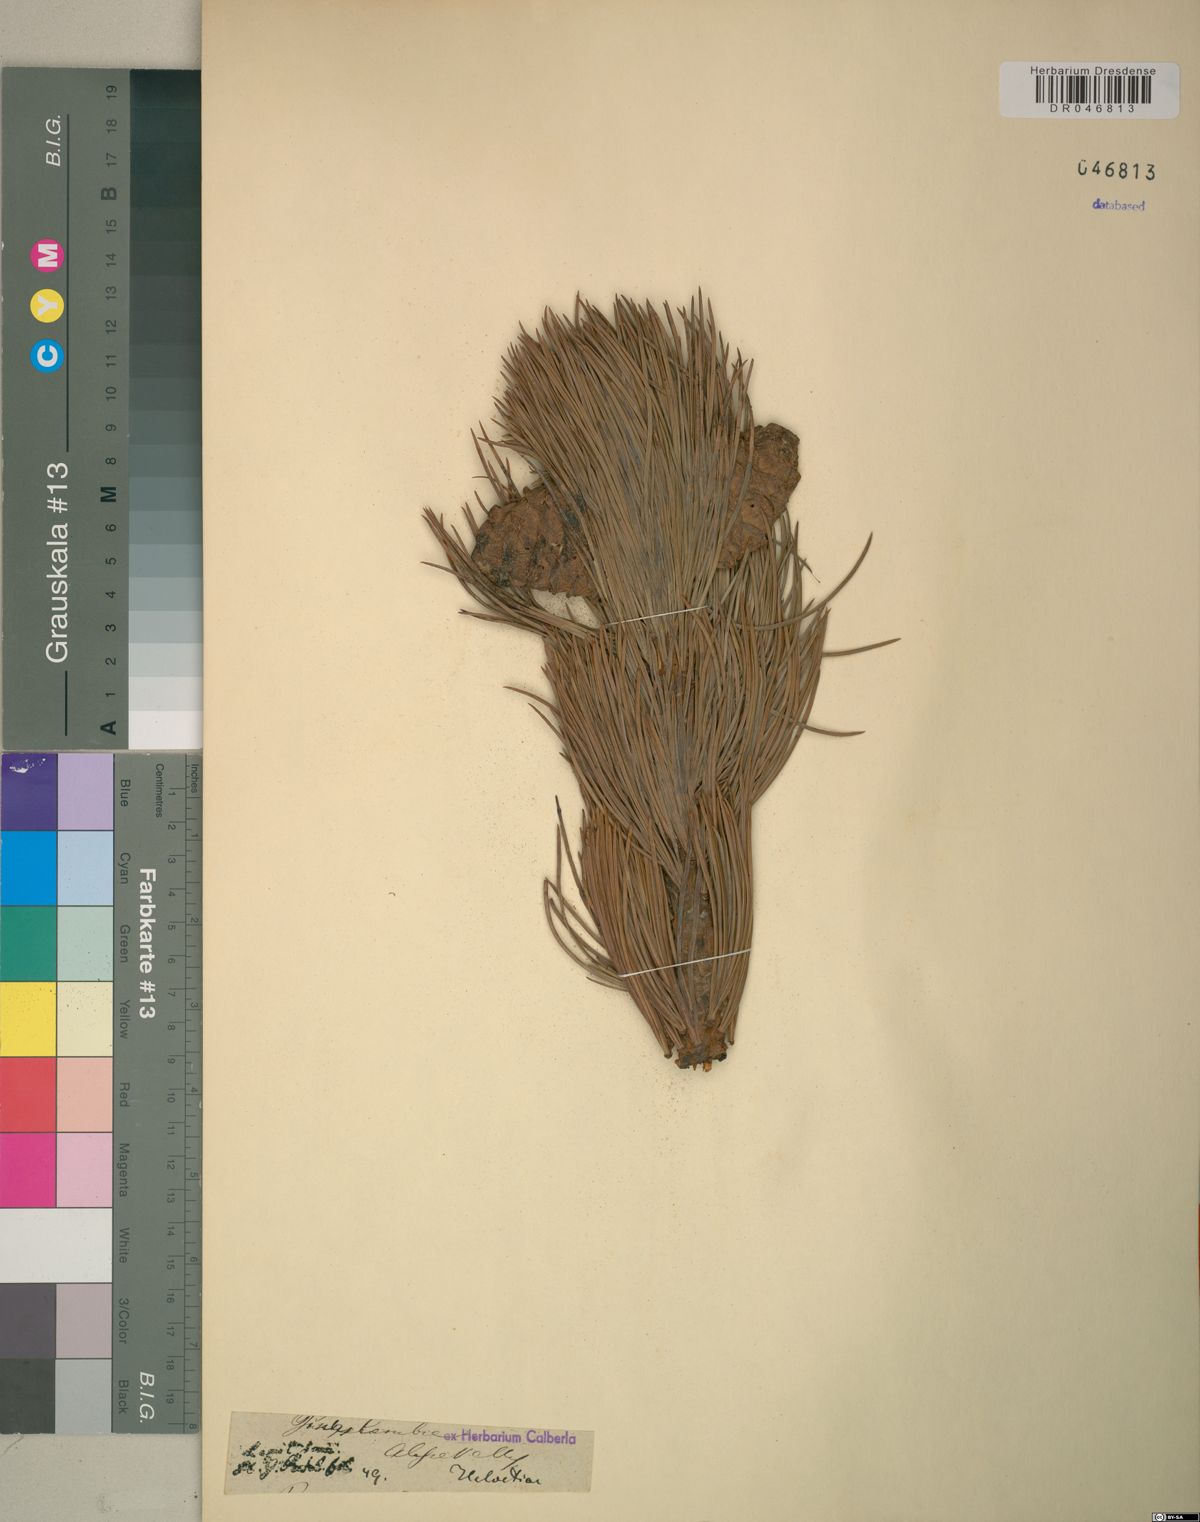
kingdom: Plantae
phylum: Tracheophyta
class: Pinopsida
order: Pinales
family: Pinaceae
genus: Pinus
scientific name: Pinus cembra
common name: Arolla pine
